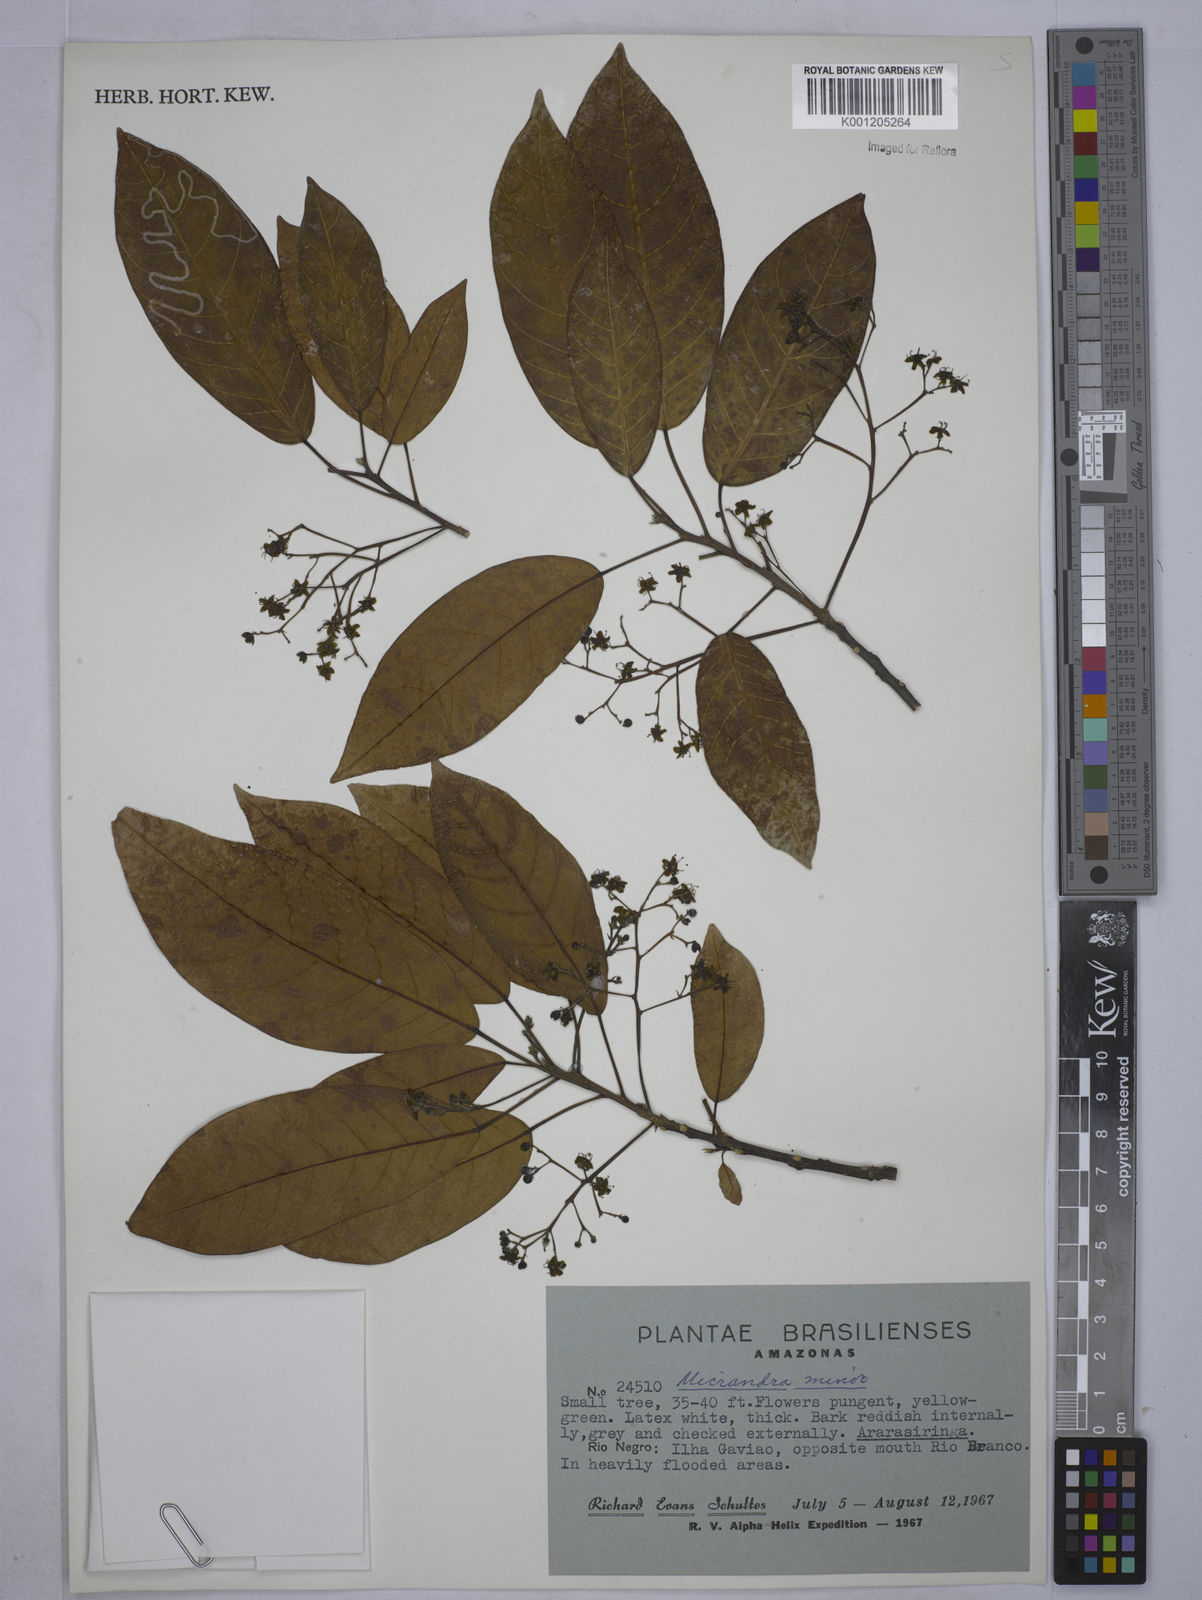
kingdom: Plantae
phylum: Tracheophyta
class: Magnoliopsida
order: Malpighiales
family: Euphorbiaceae
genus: Micrandra
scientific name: Micrandra minor
